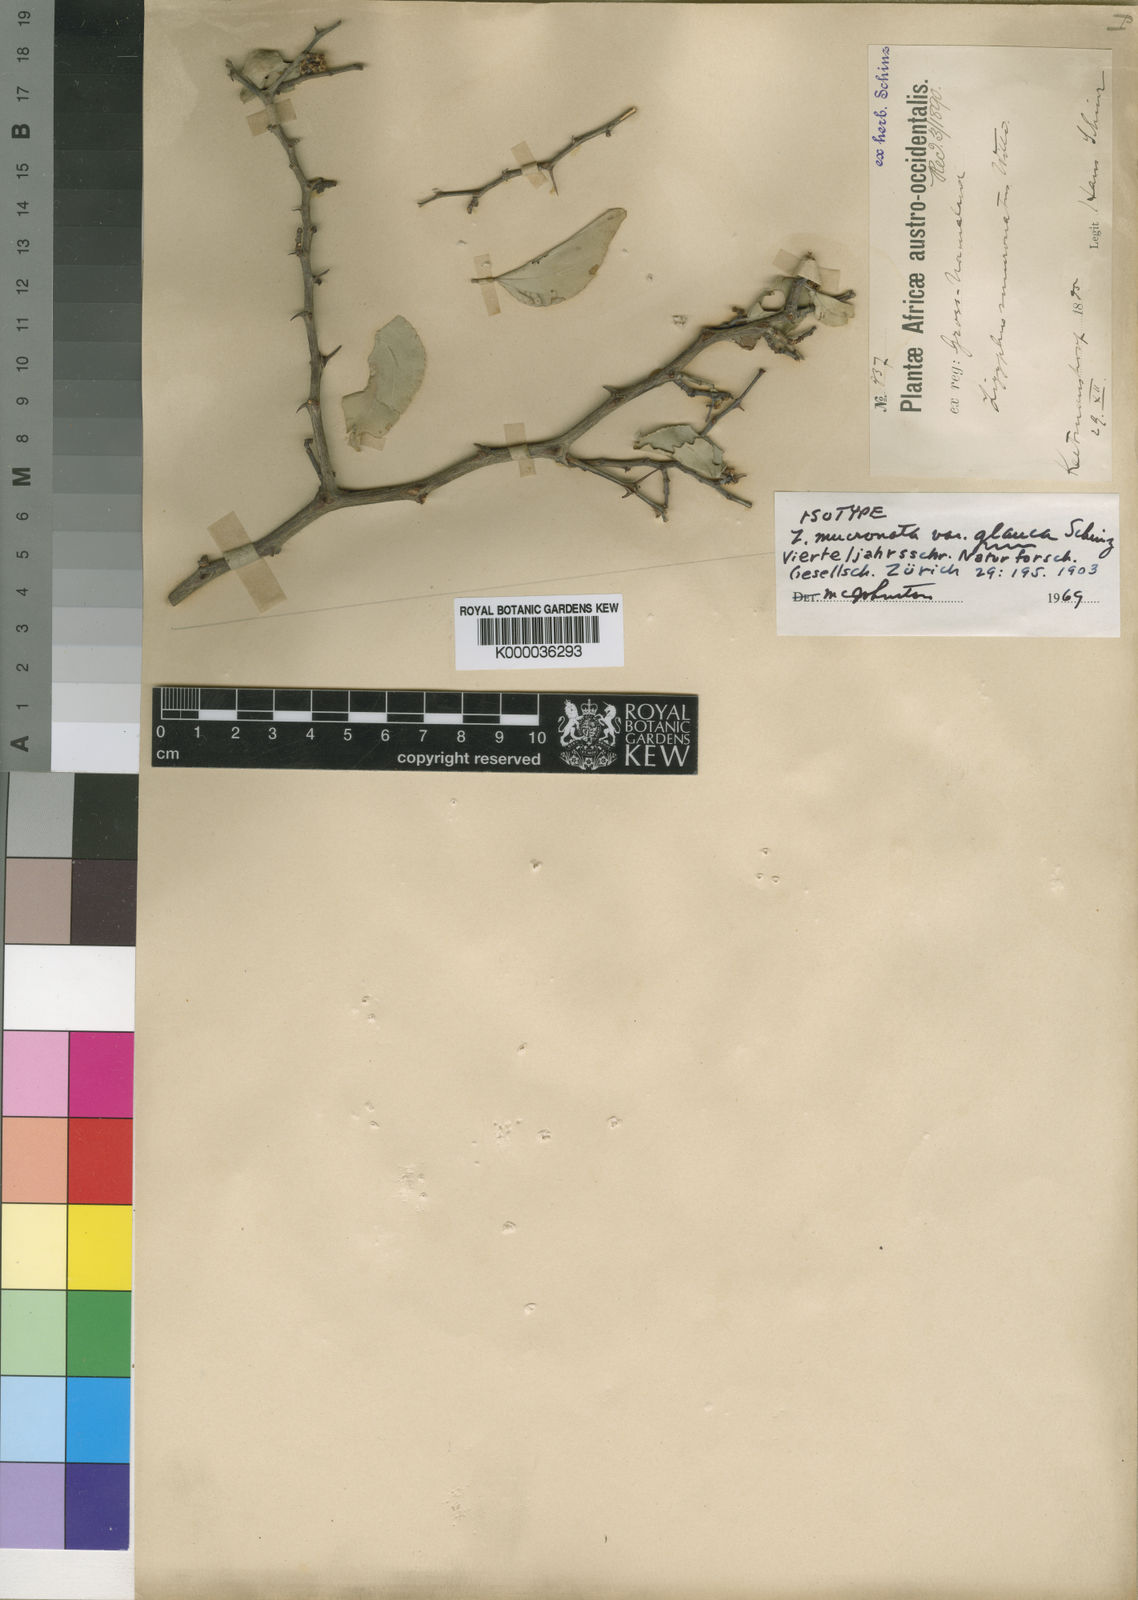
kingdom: Plantae
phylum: Tracheophyta
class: Magnoliopsida
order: Rosales
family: Rhamnaceae
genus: Ziziphus
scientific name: Ziziphus mucronata
